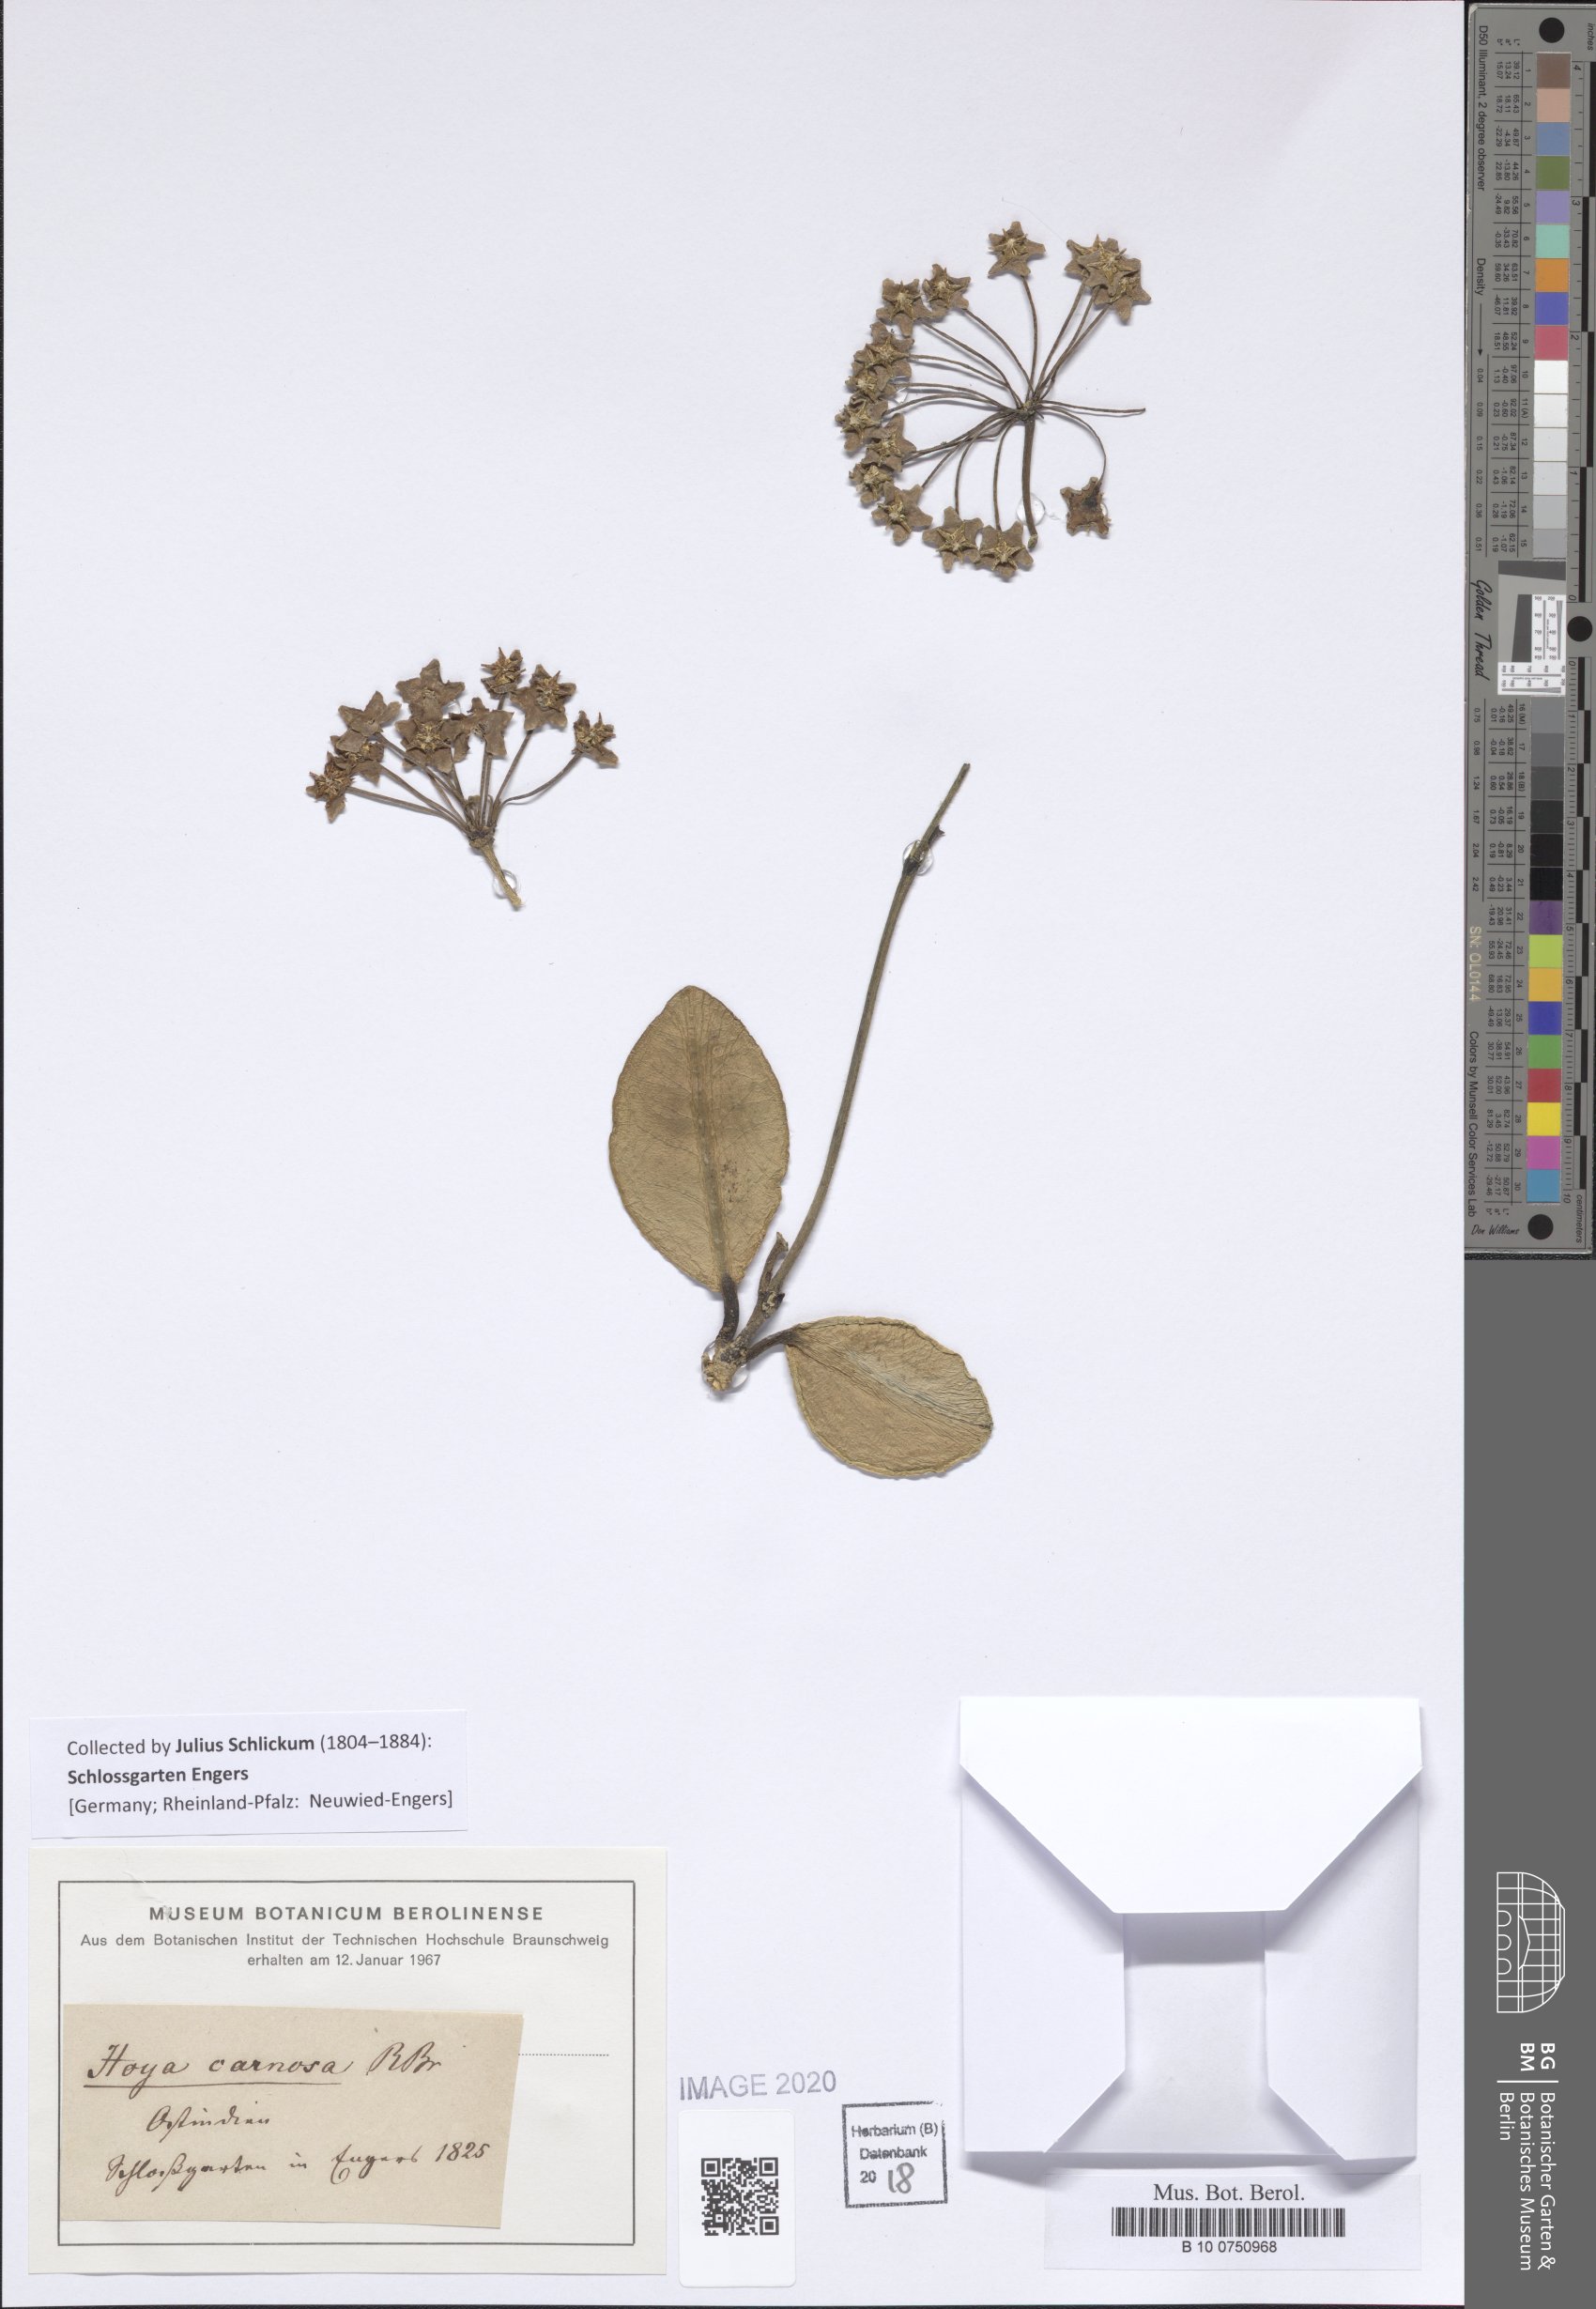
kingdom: Plantae
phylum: Tracheophyta
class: Magnoliopsida
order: Gentianales
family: Apocynaceae
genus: Hoya
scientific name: Hoya carnosa
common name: Honeyplant
